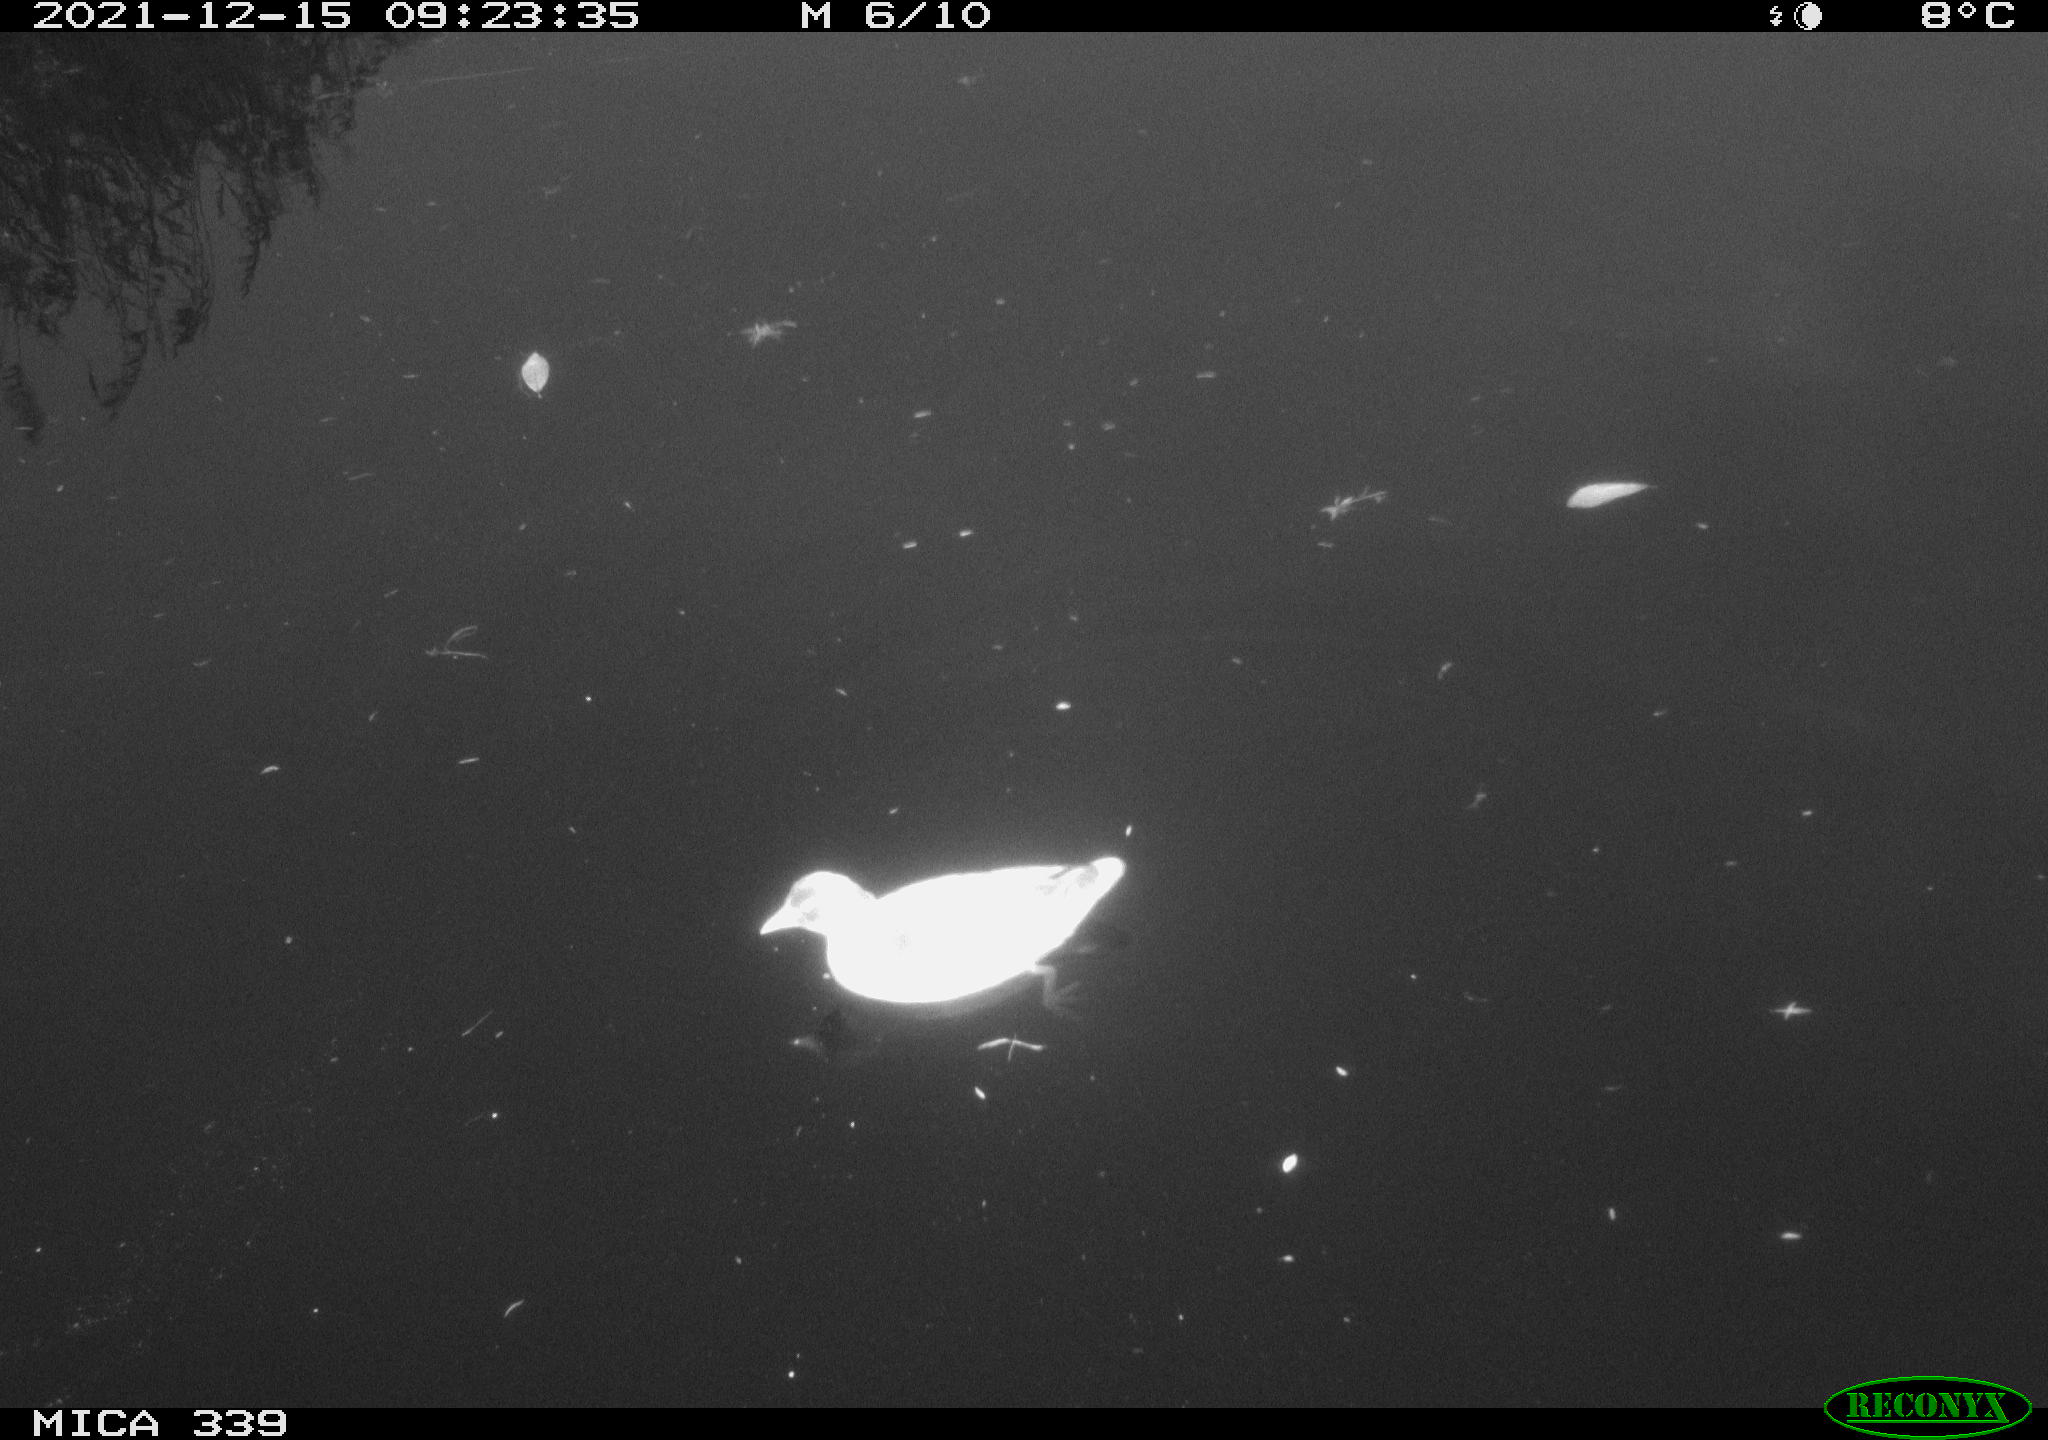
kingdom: Animalia
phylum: Chordata
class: Aves
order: Gruiformes
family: Rallidae
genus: Gallinula
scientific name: Gallinula chloropus
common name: Common moorhen
